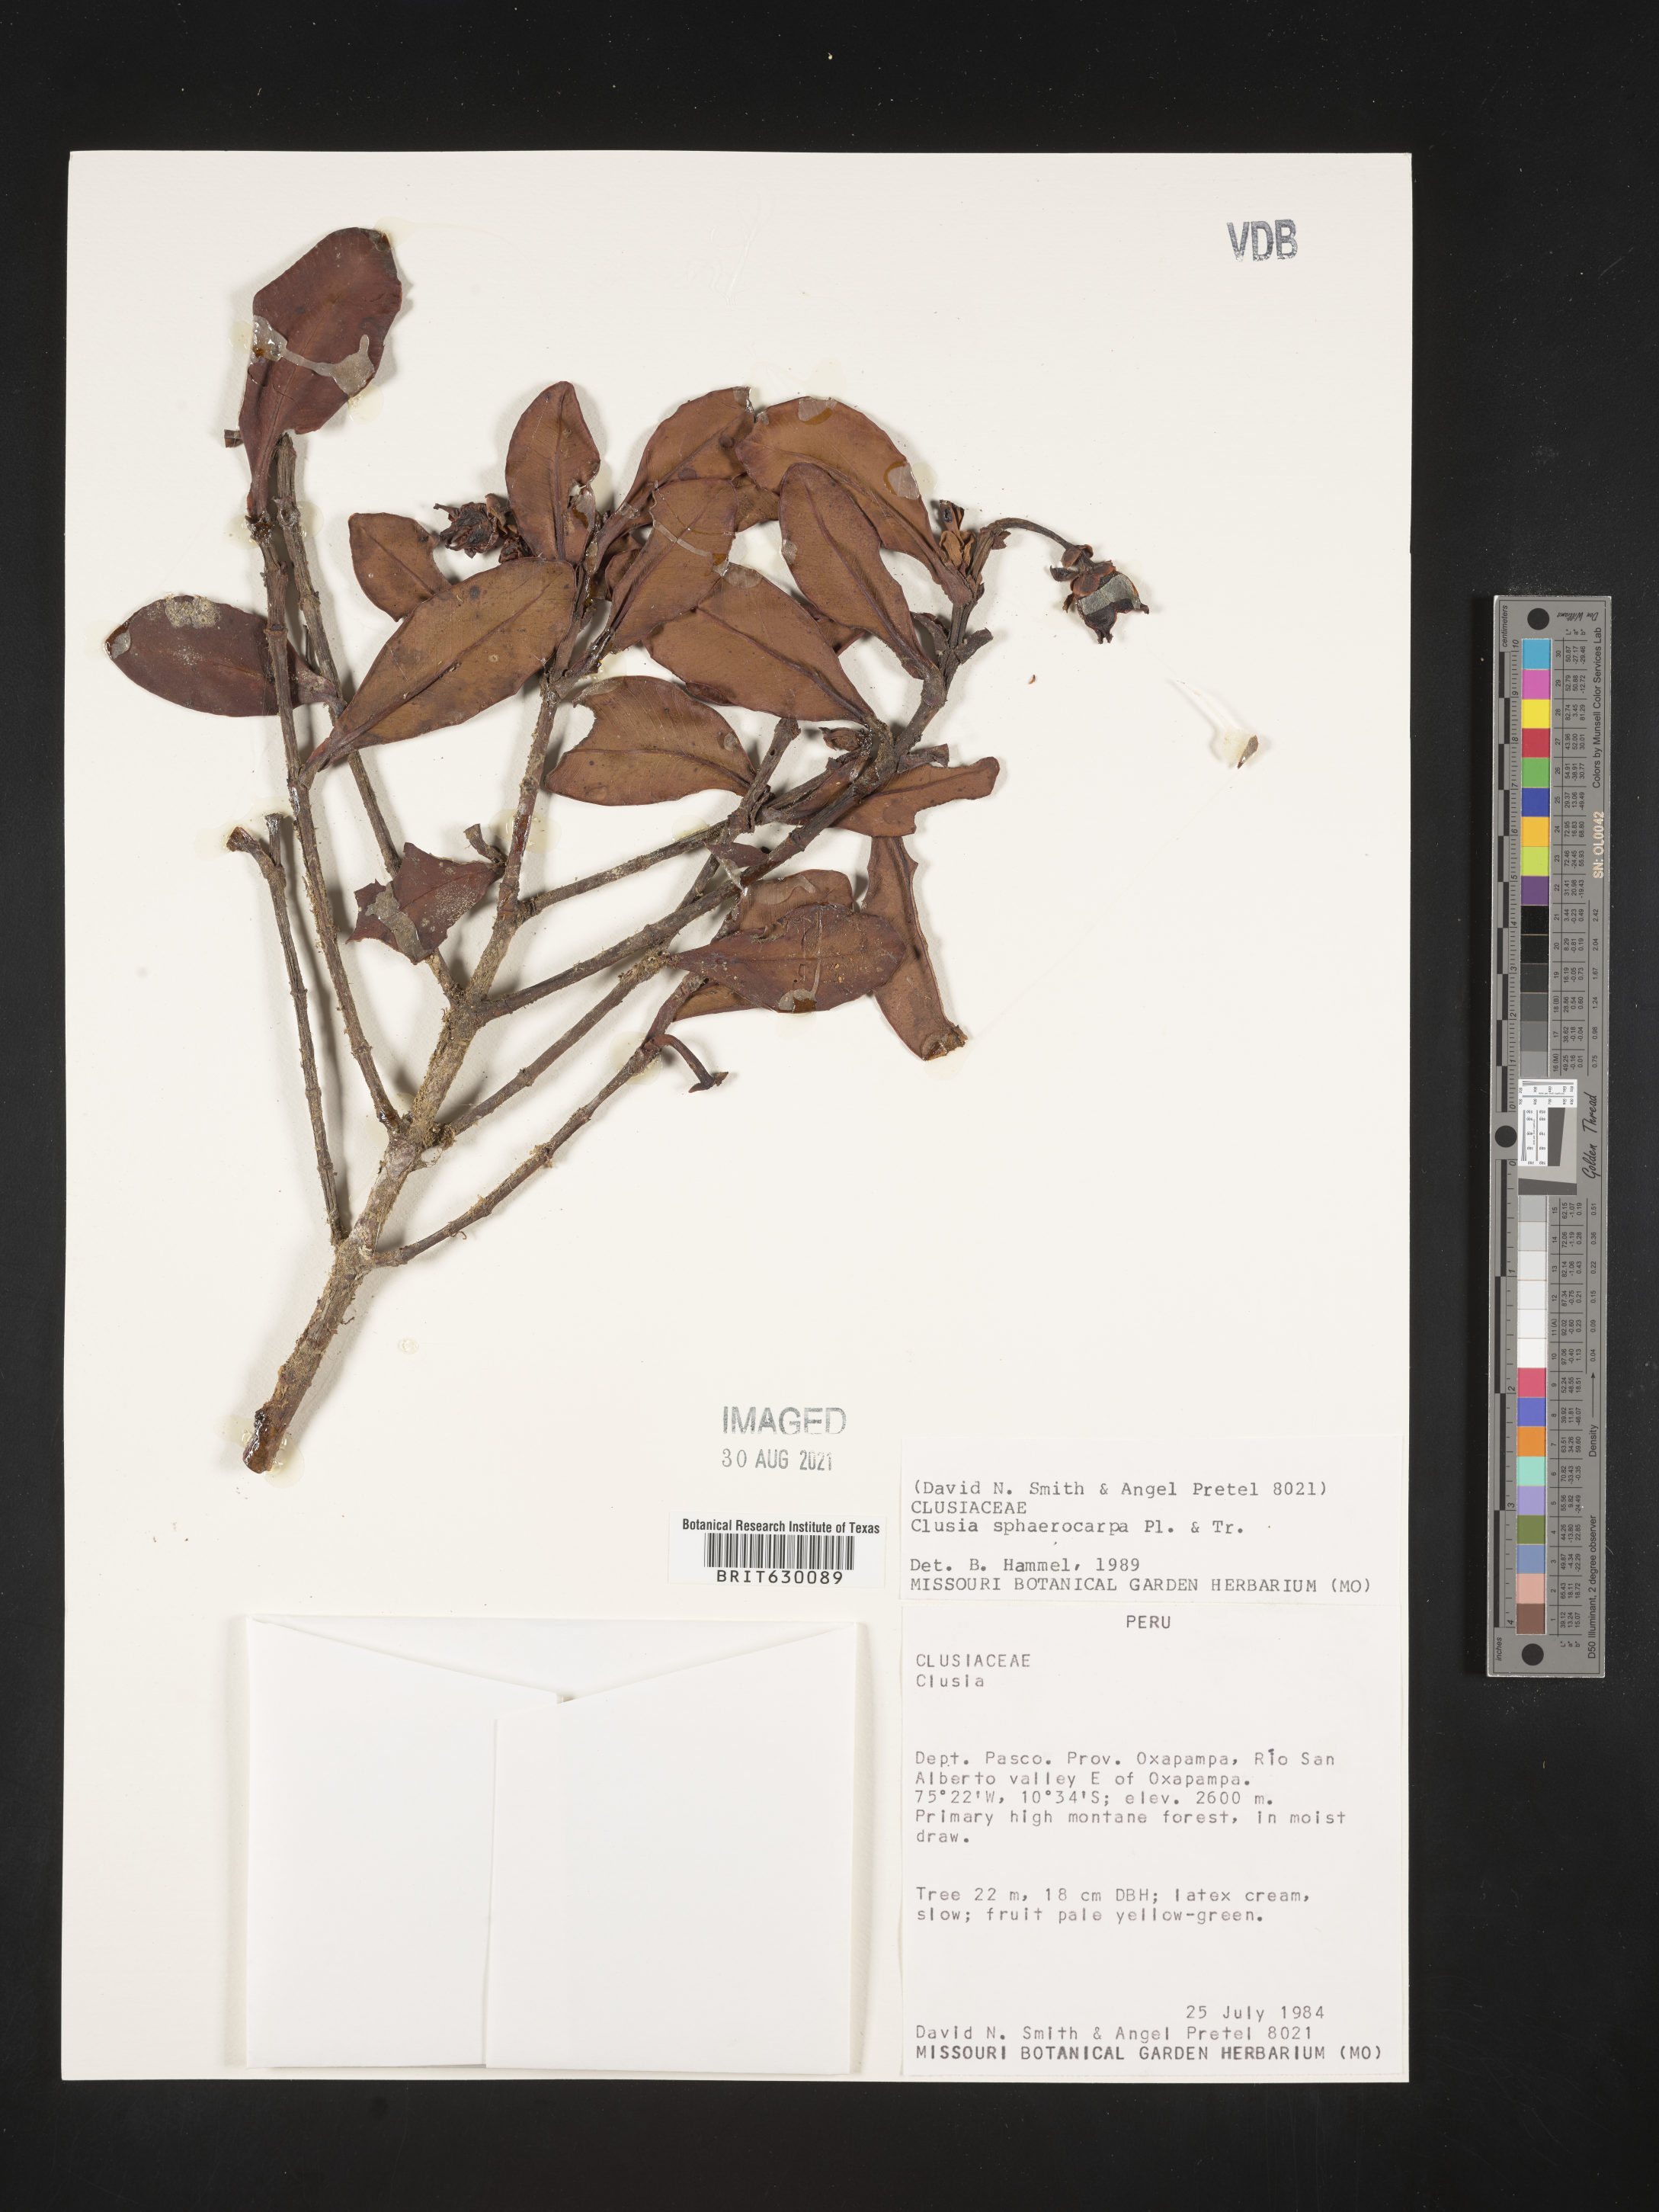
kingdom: Plantae
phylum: Tracheophyta
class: Magnoliopsida
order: Malpighiales
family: Clusiaceae
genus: Clusia
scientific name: Clusia sphaerocarpa
